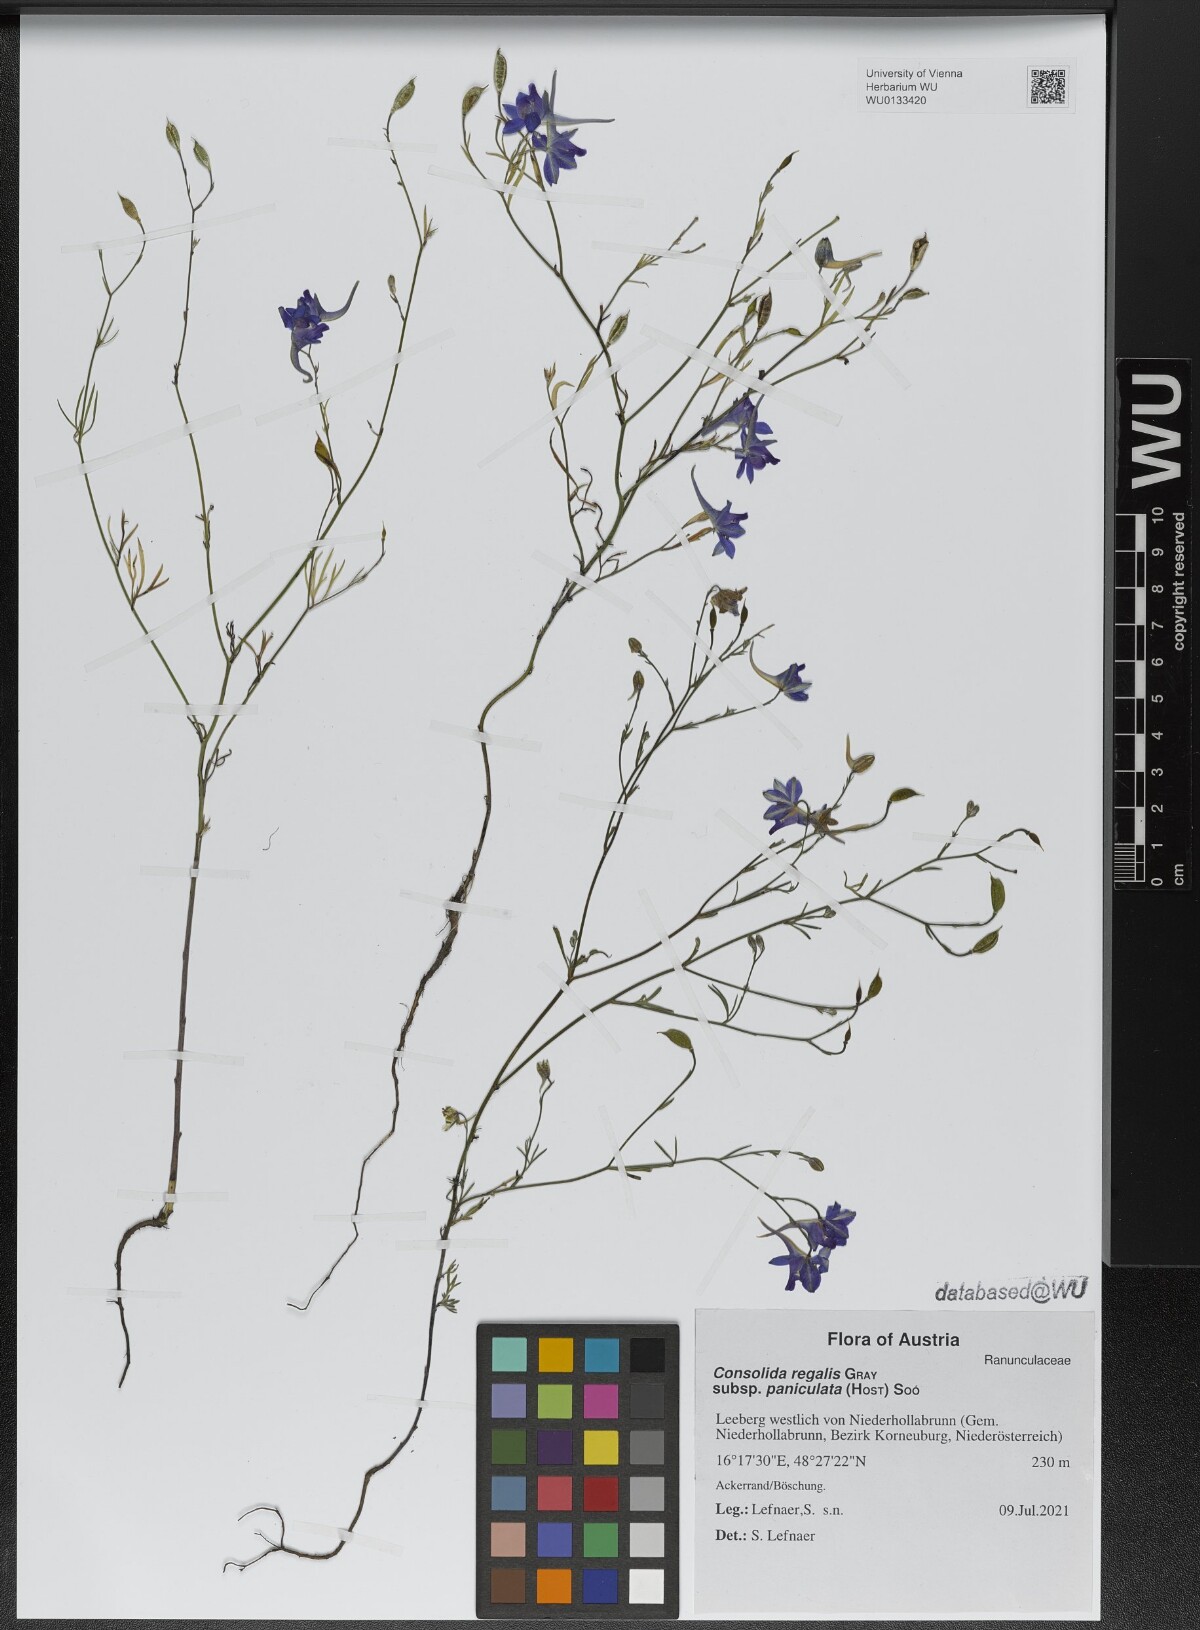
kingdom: Plantae
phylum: Tracheophyta
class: Magnoliopsida
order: Ranunculales
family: Ranunculaceae
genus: Delphinium
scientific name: Delphinium consolida
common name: Branching larkspur
